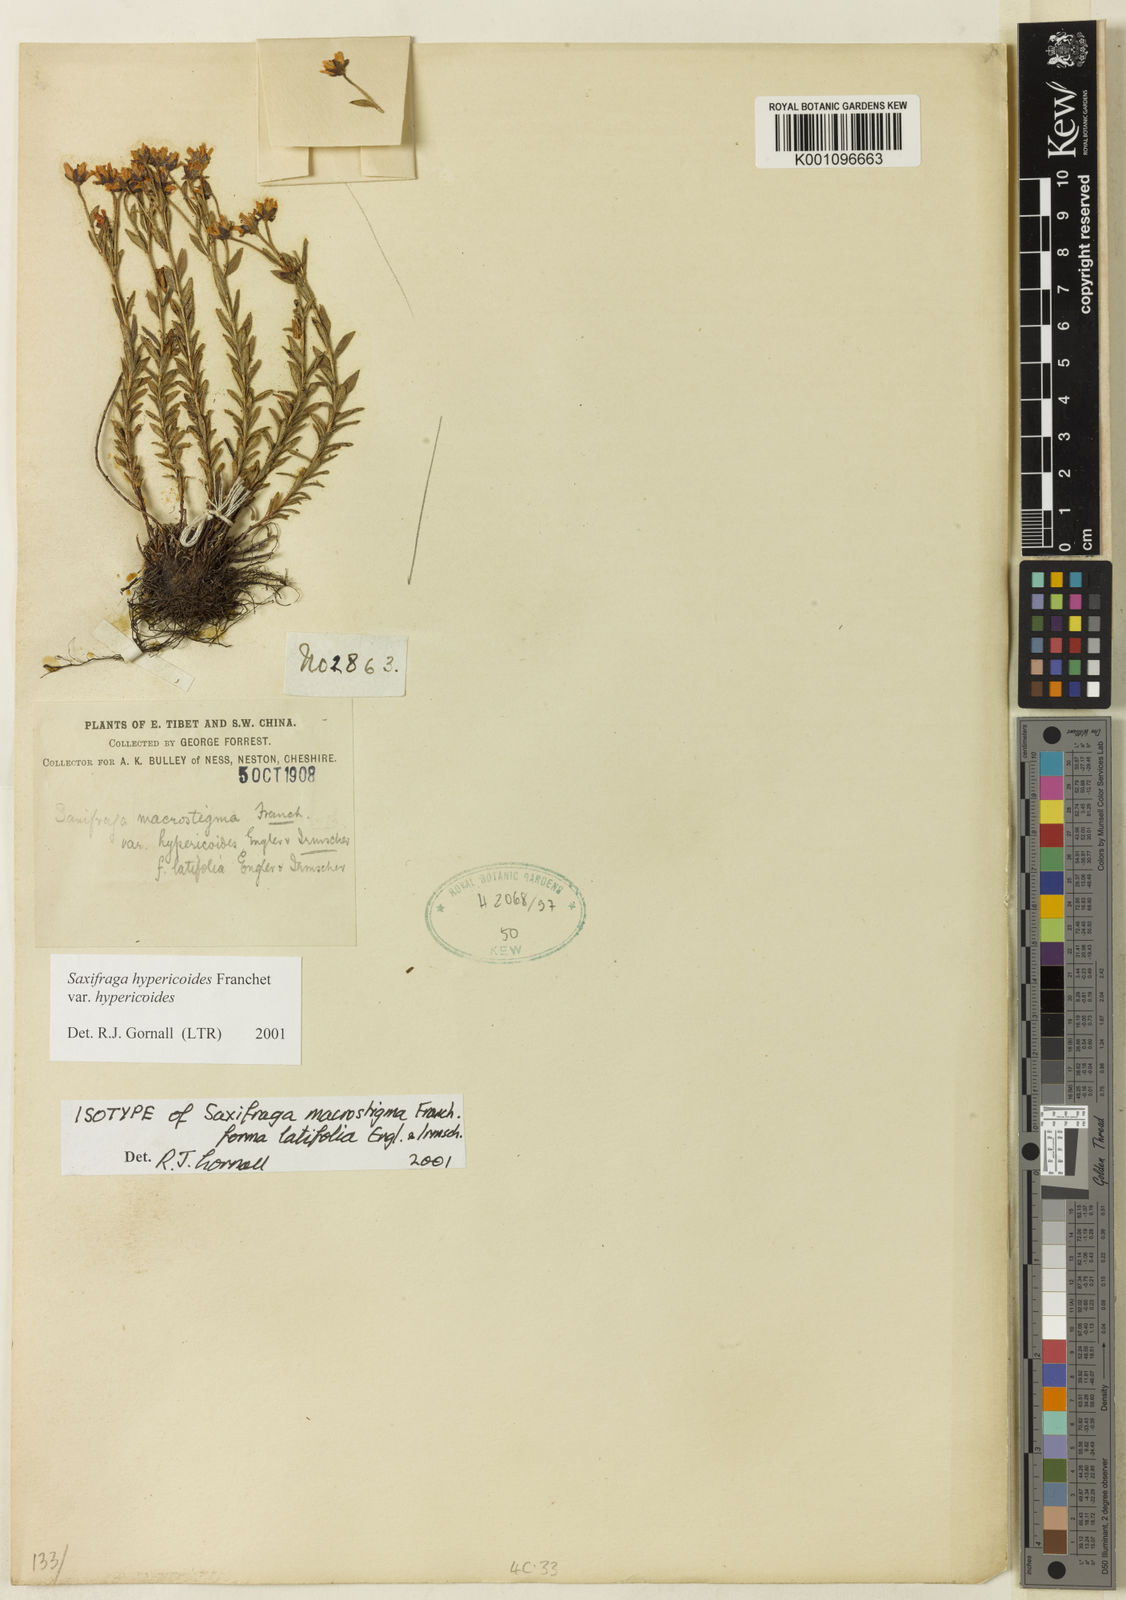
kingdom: Plantae
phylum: Tracheophyta
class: Magnoliopsida
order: Saxifragales
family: Saxifragaceae
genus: Saxifraga
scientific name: Saxifraga aristulata
